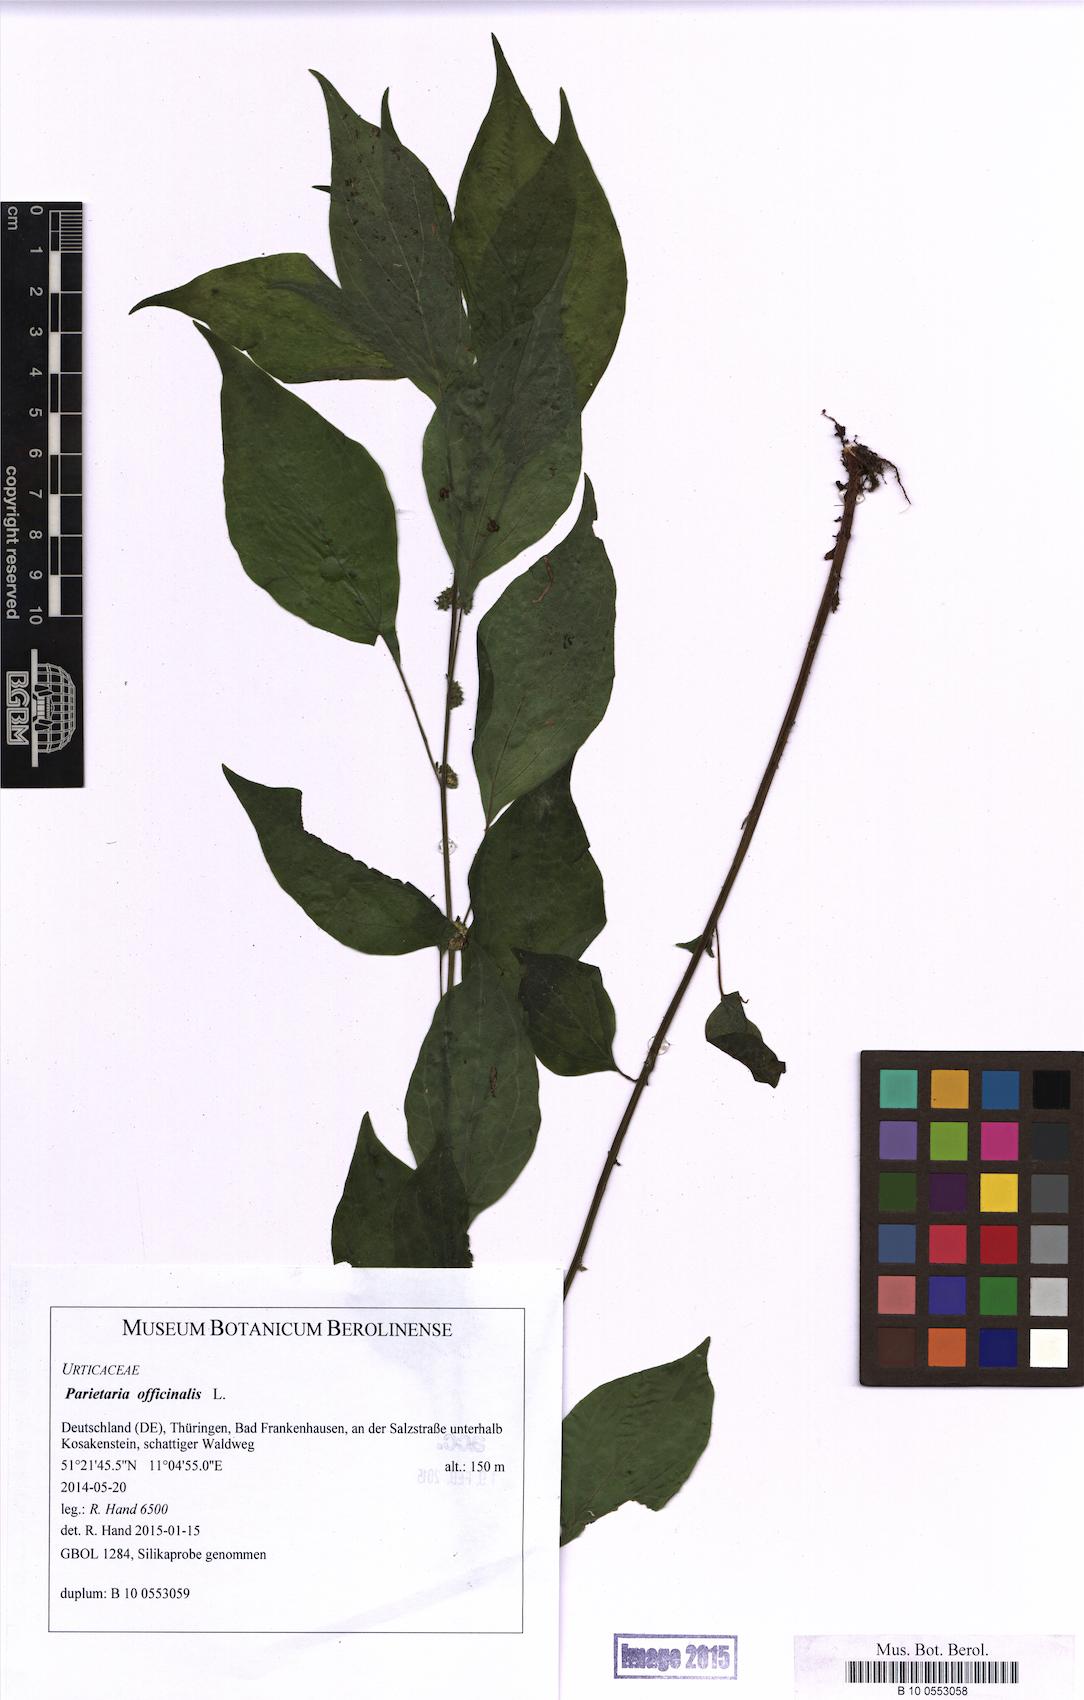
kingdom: Plantae
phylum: Tracheophyta
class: Magnoliopsida
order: Rosales
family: Urticaceae
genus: Parietaria
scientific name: Parietaria officinalis
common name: Eastern pellitory-of-the-wall
